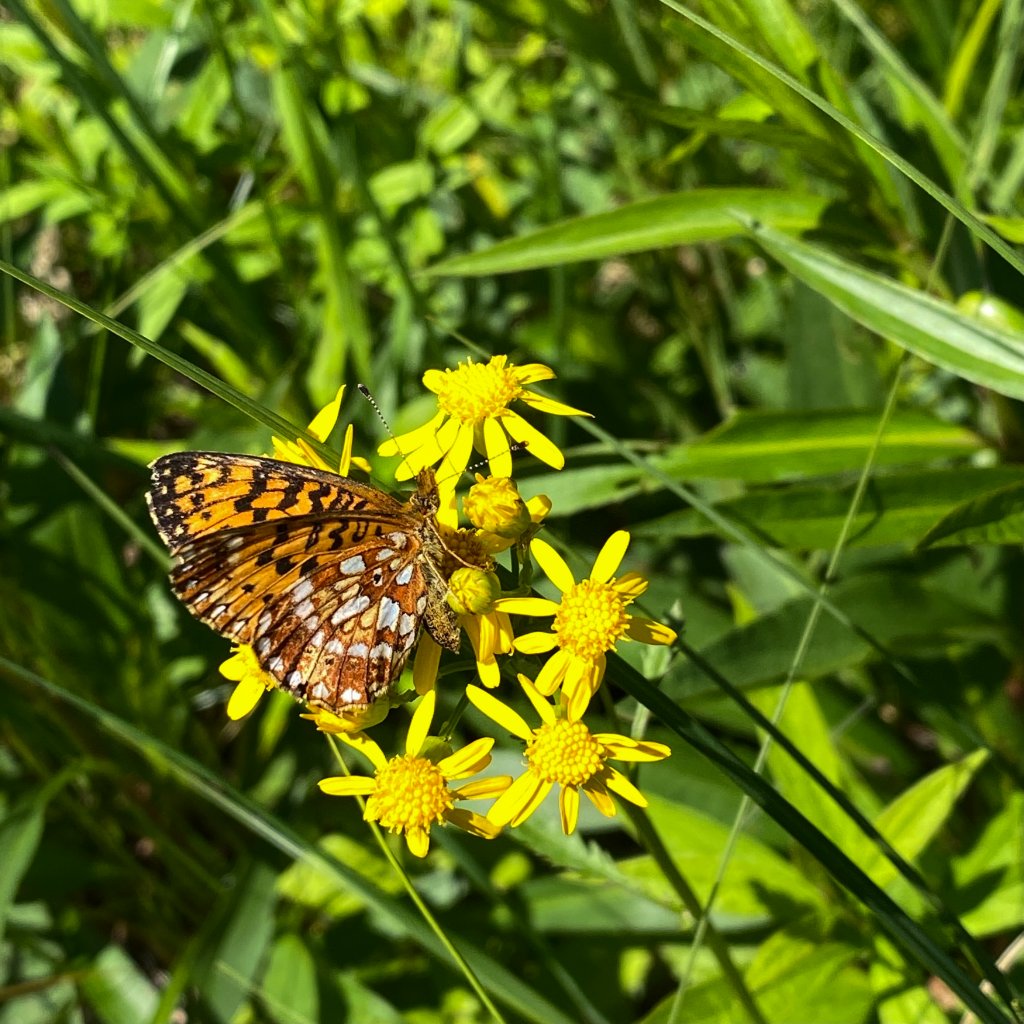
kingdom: Animalia
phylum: Arthropoda
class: Insecta
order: Lepidoptera
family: Nymphalidae
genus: Boloria
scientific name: Boloria selene
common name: Silver-bordered Fritillary
